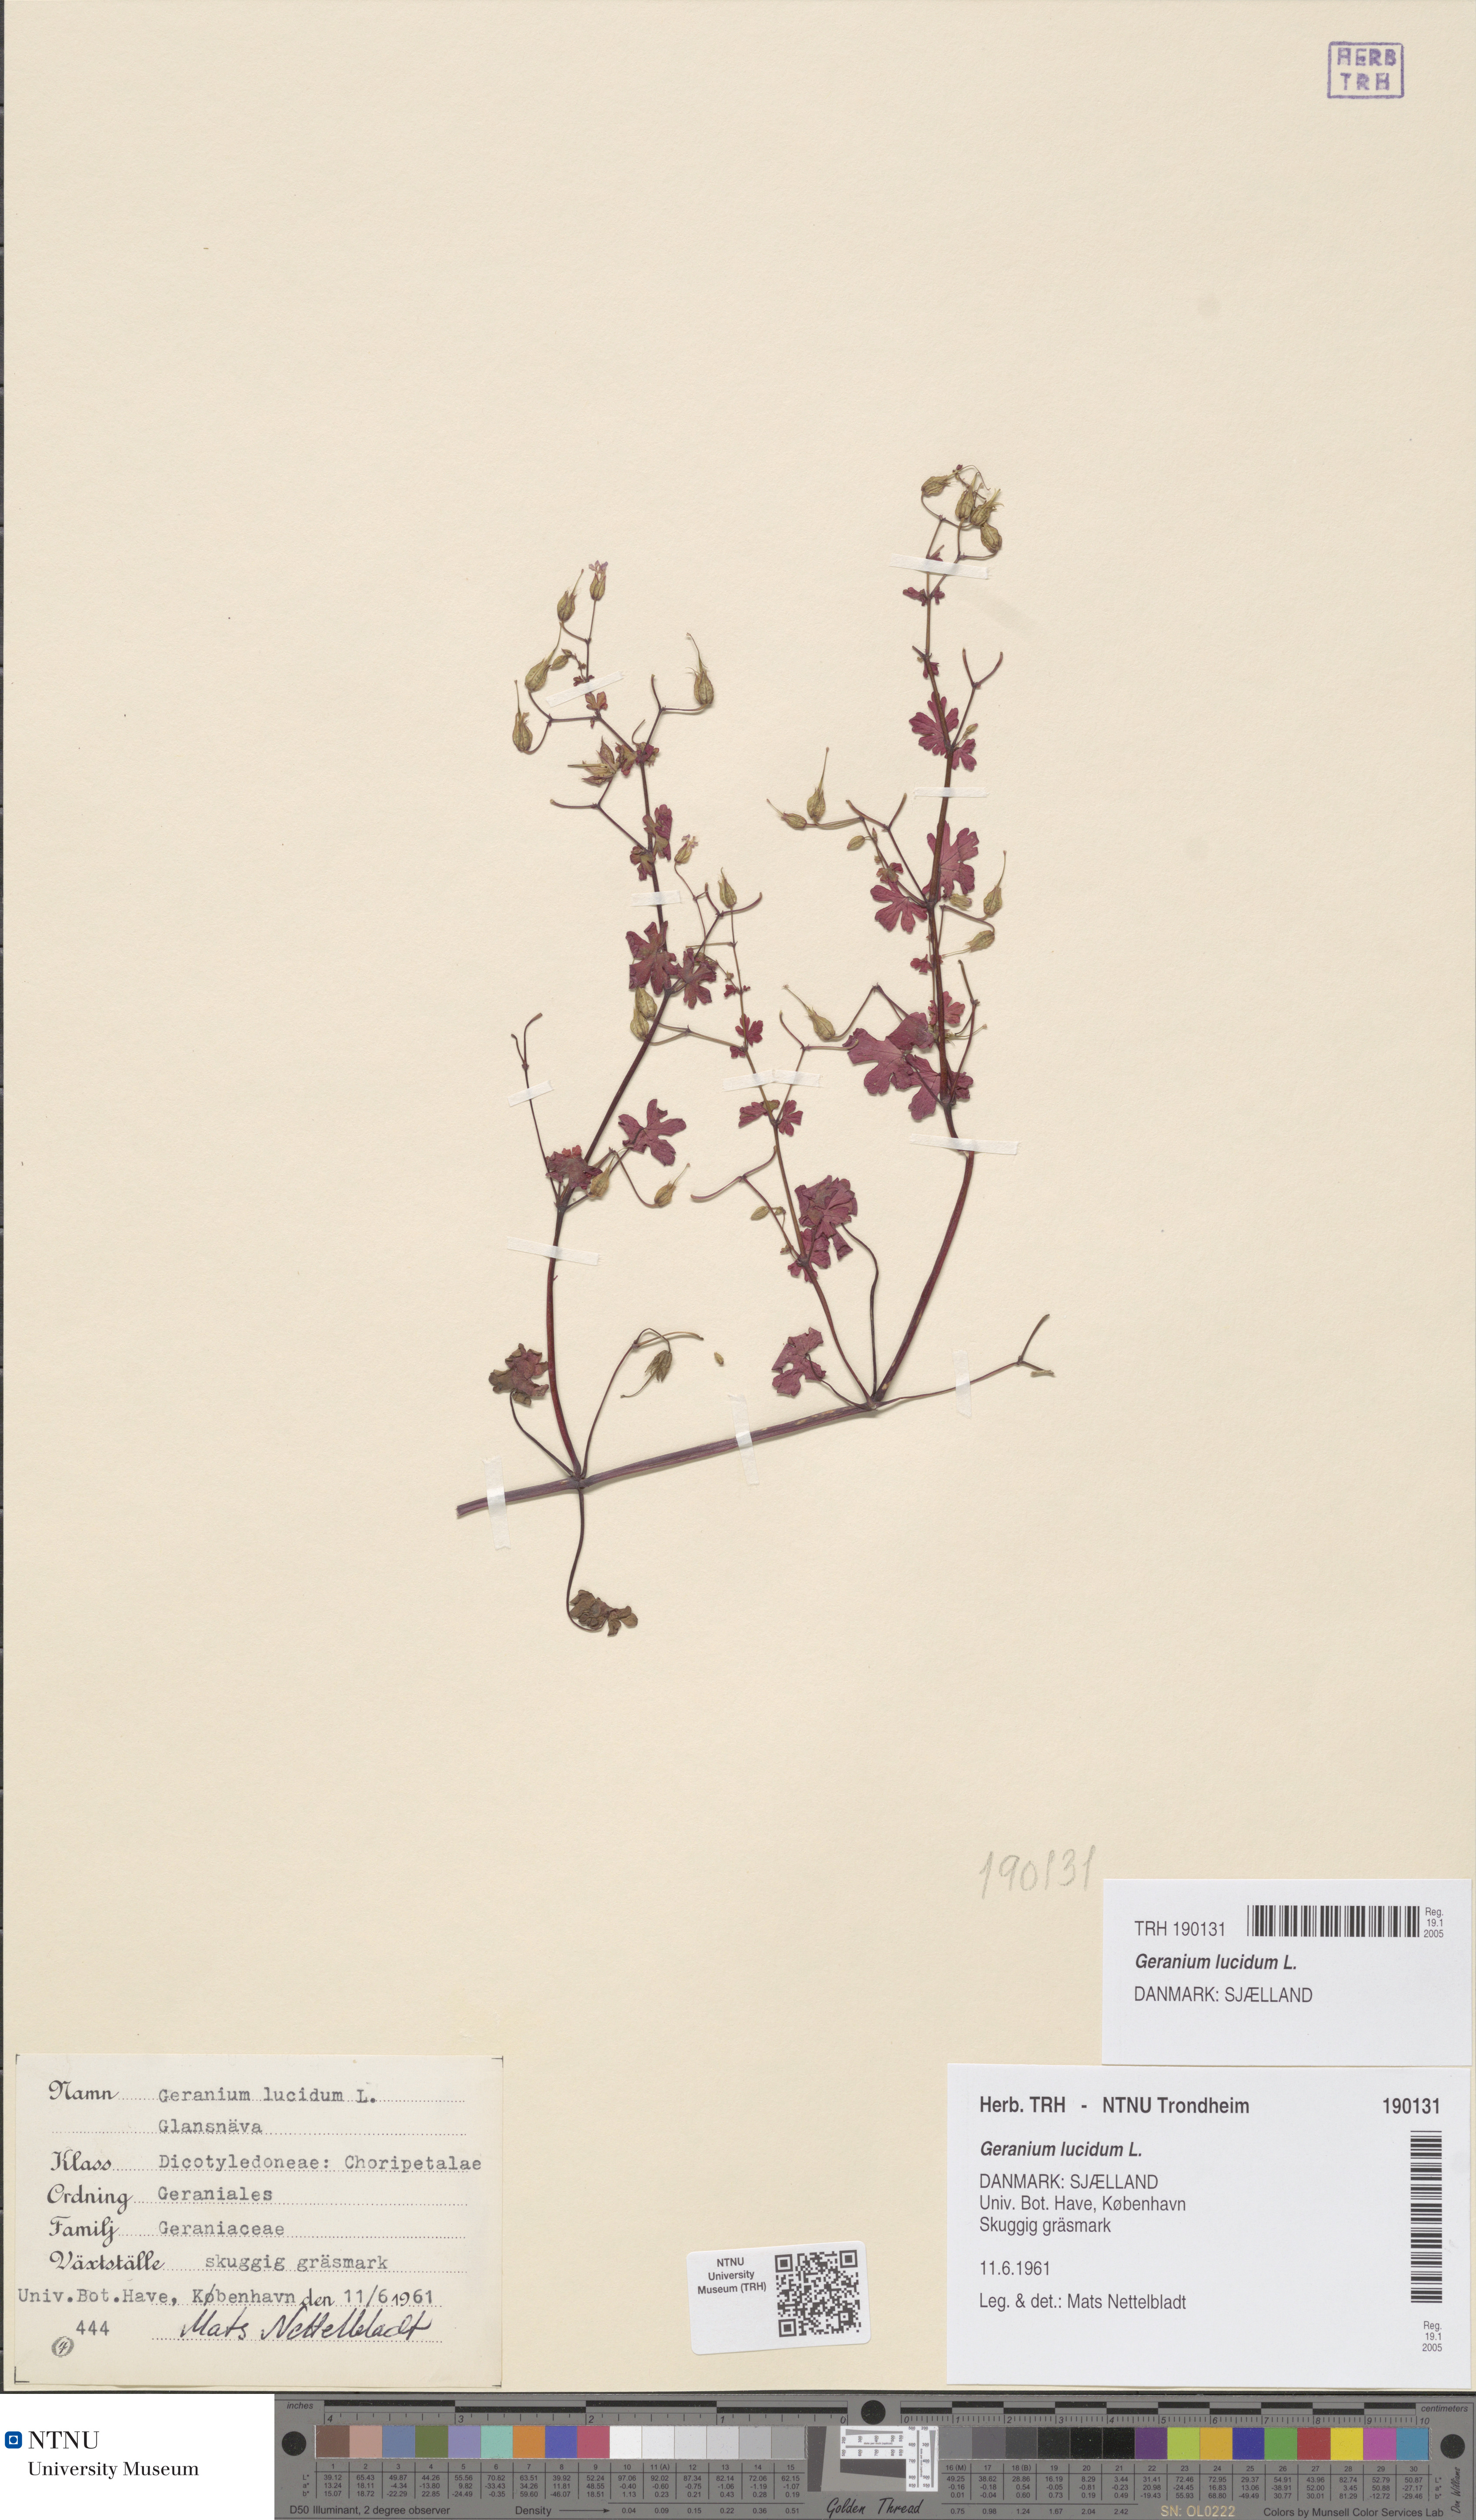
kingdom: Plantae
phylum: Tracheophyta
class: Magnoliopsida
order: Geraniales
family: Geraniaceae
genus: Geranium
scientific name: Geranium lucidum
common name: Shining crane's-bill
